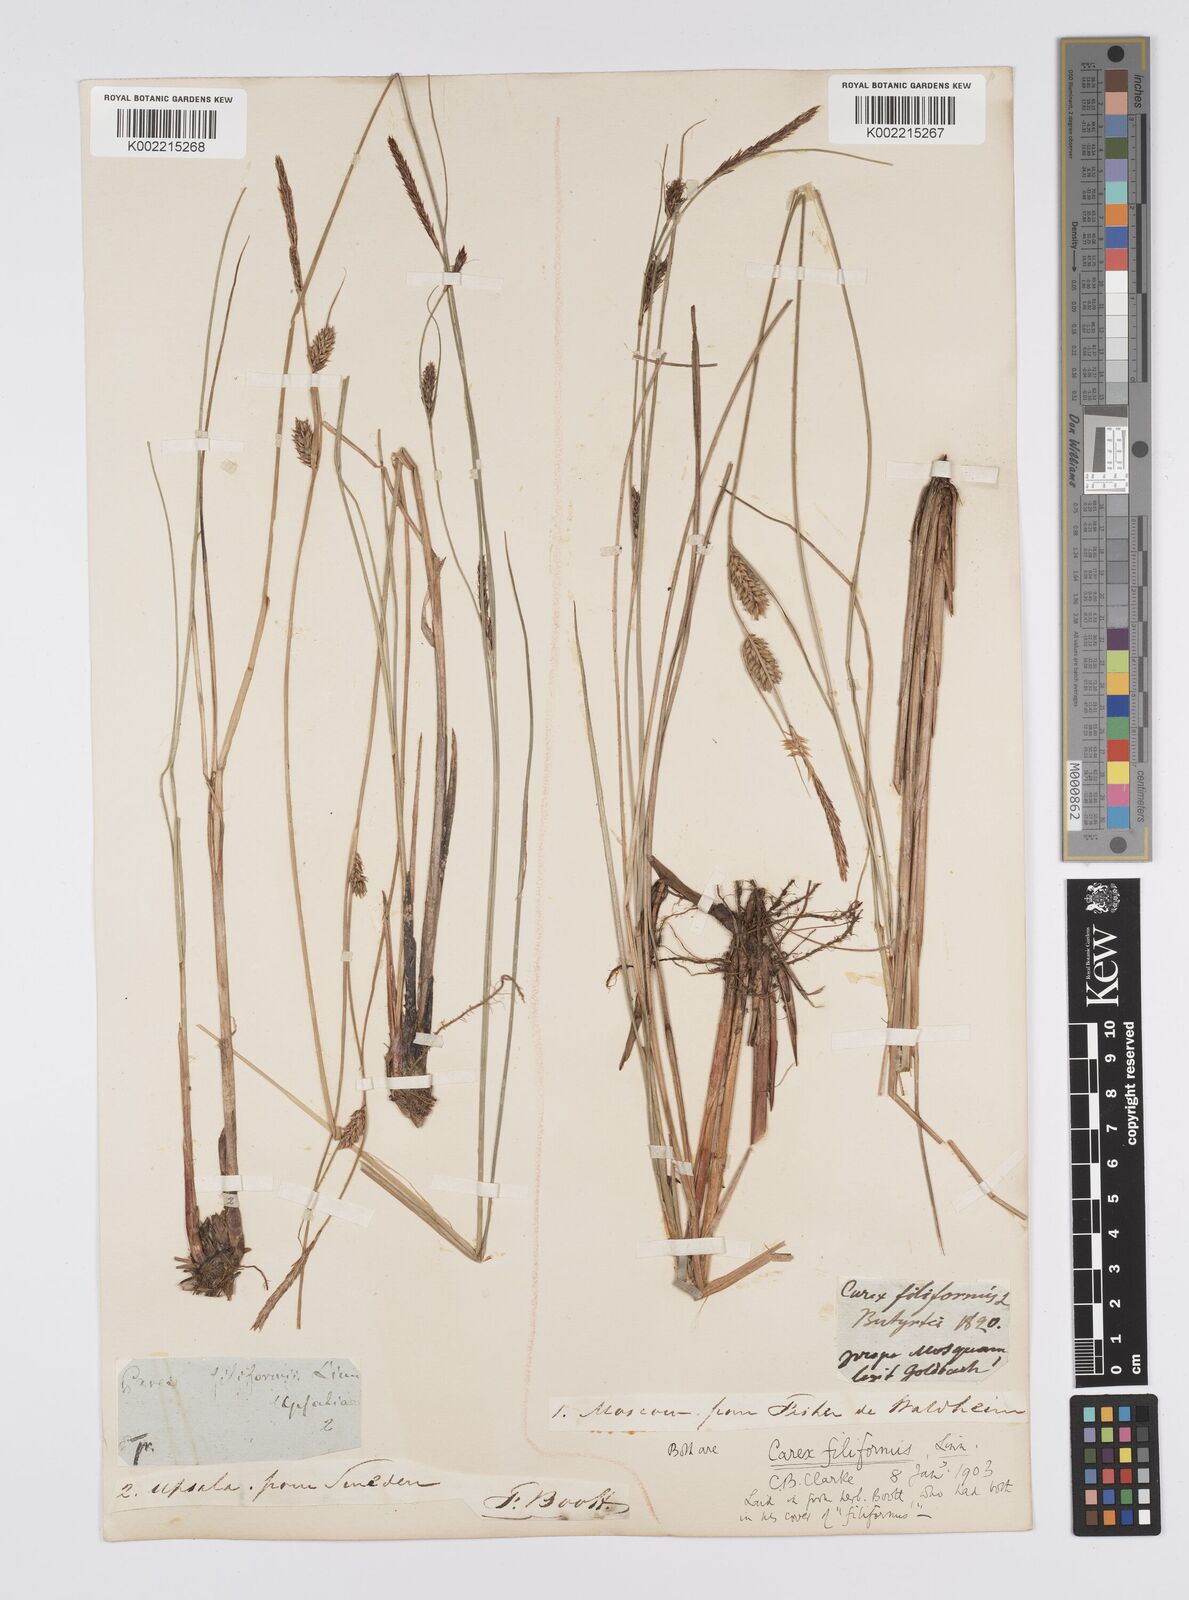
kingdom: Plantae
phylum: Tracheophyta
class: Liliopsida
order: Poales
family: Cyperaceae
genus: Carex
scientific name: Carex lasiocarpa
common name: Slender sedge
